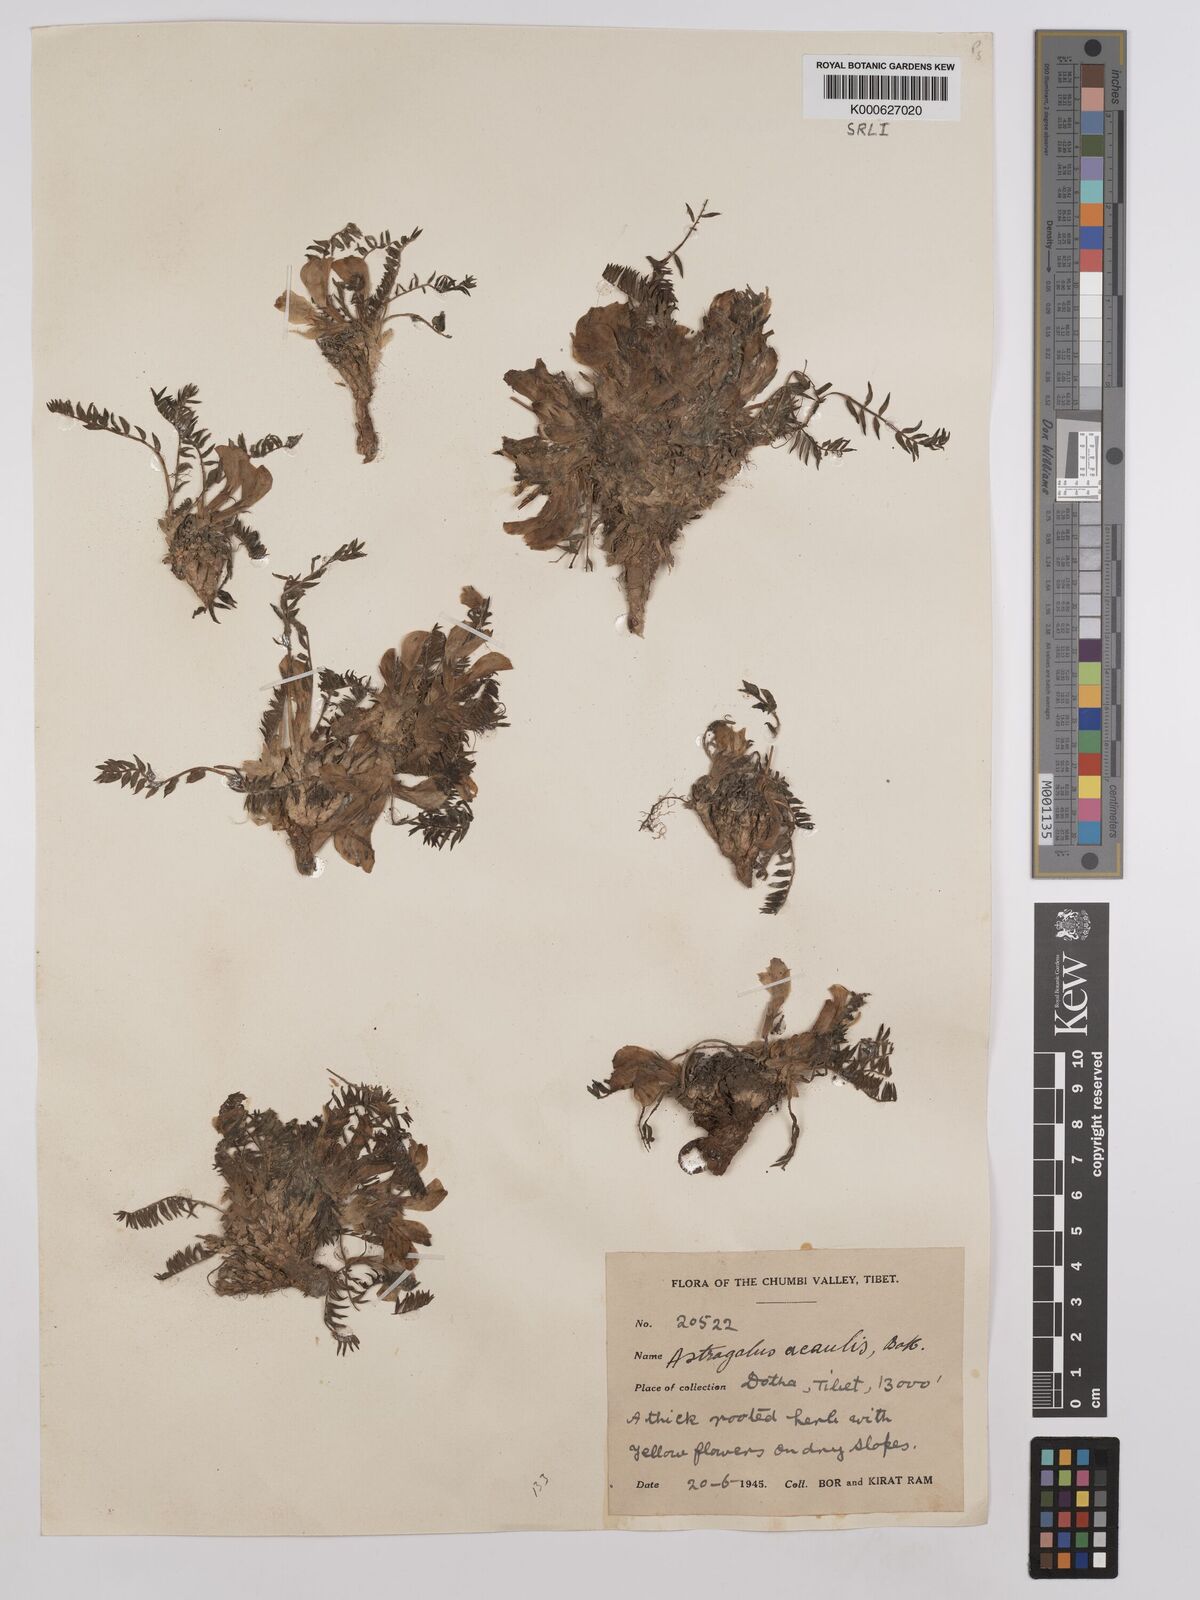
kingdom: Plantae
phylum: Tracheophyta
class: Magnoliopsida
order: Fabales
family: Fabaceae
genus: Astragalus
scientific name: Astragalus acaulis
